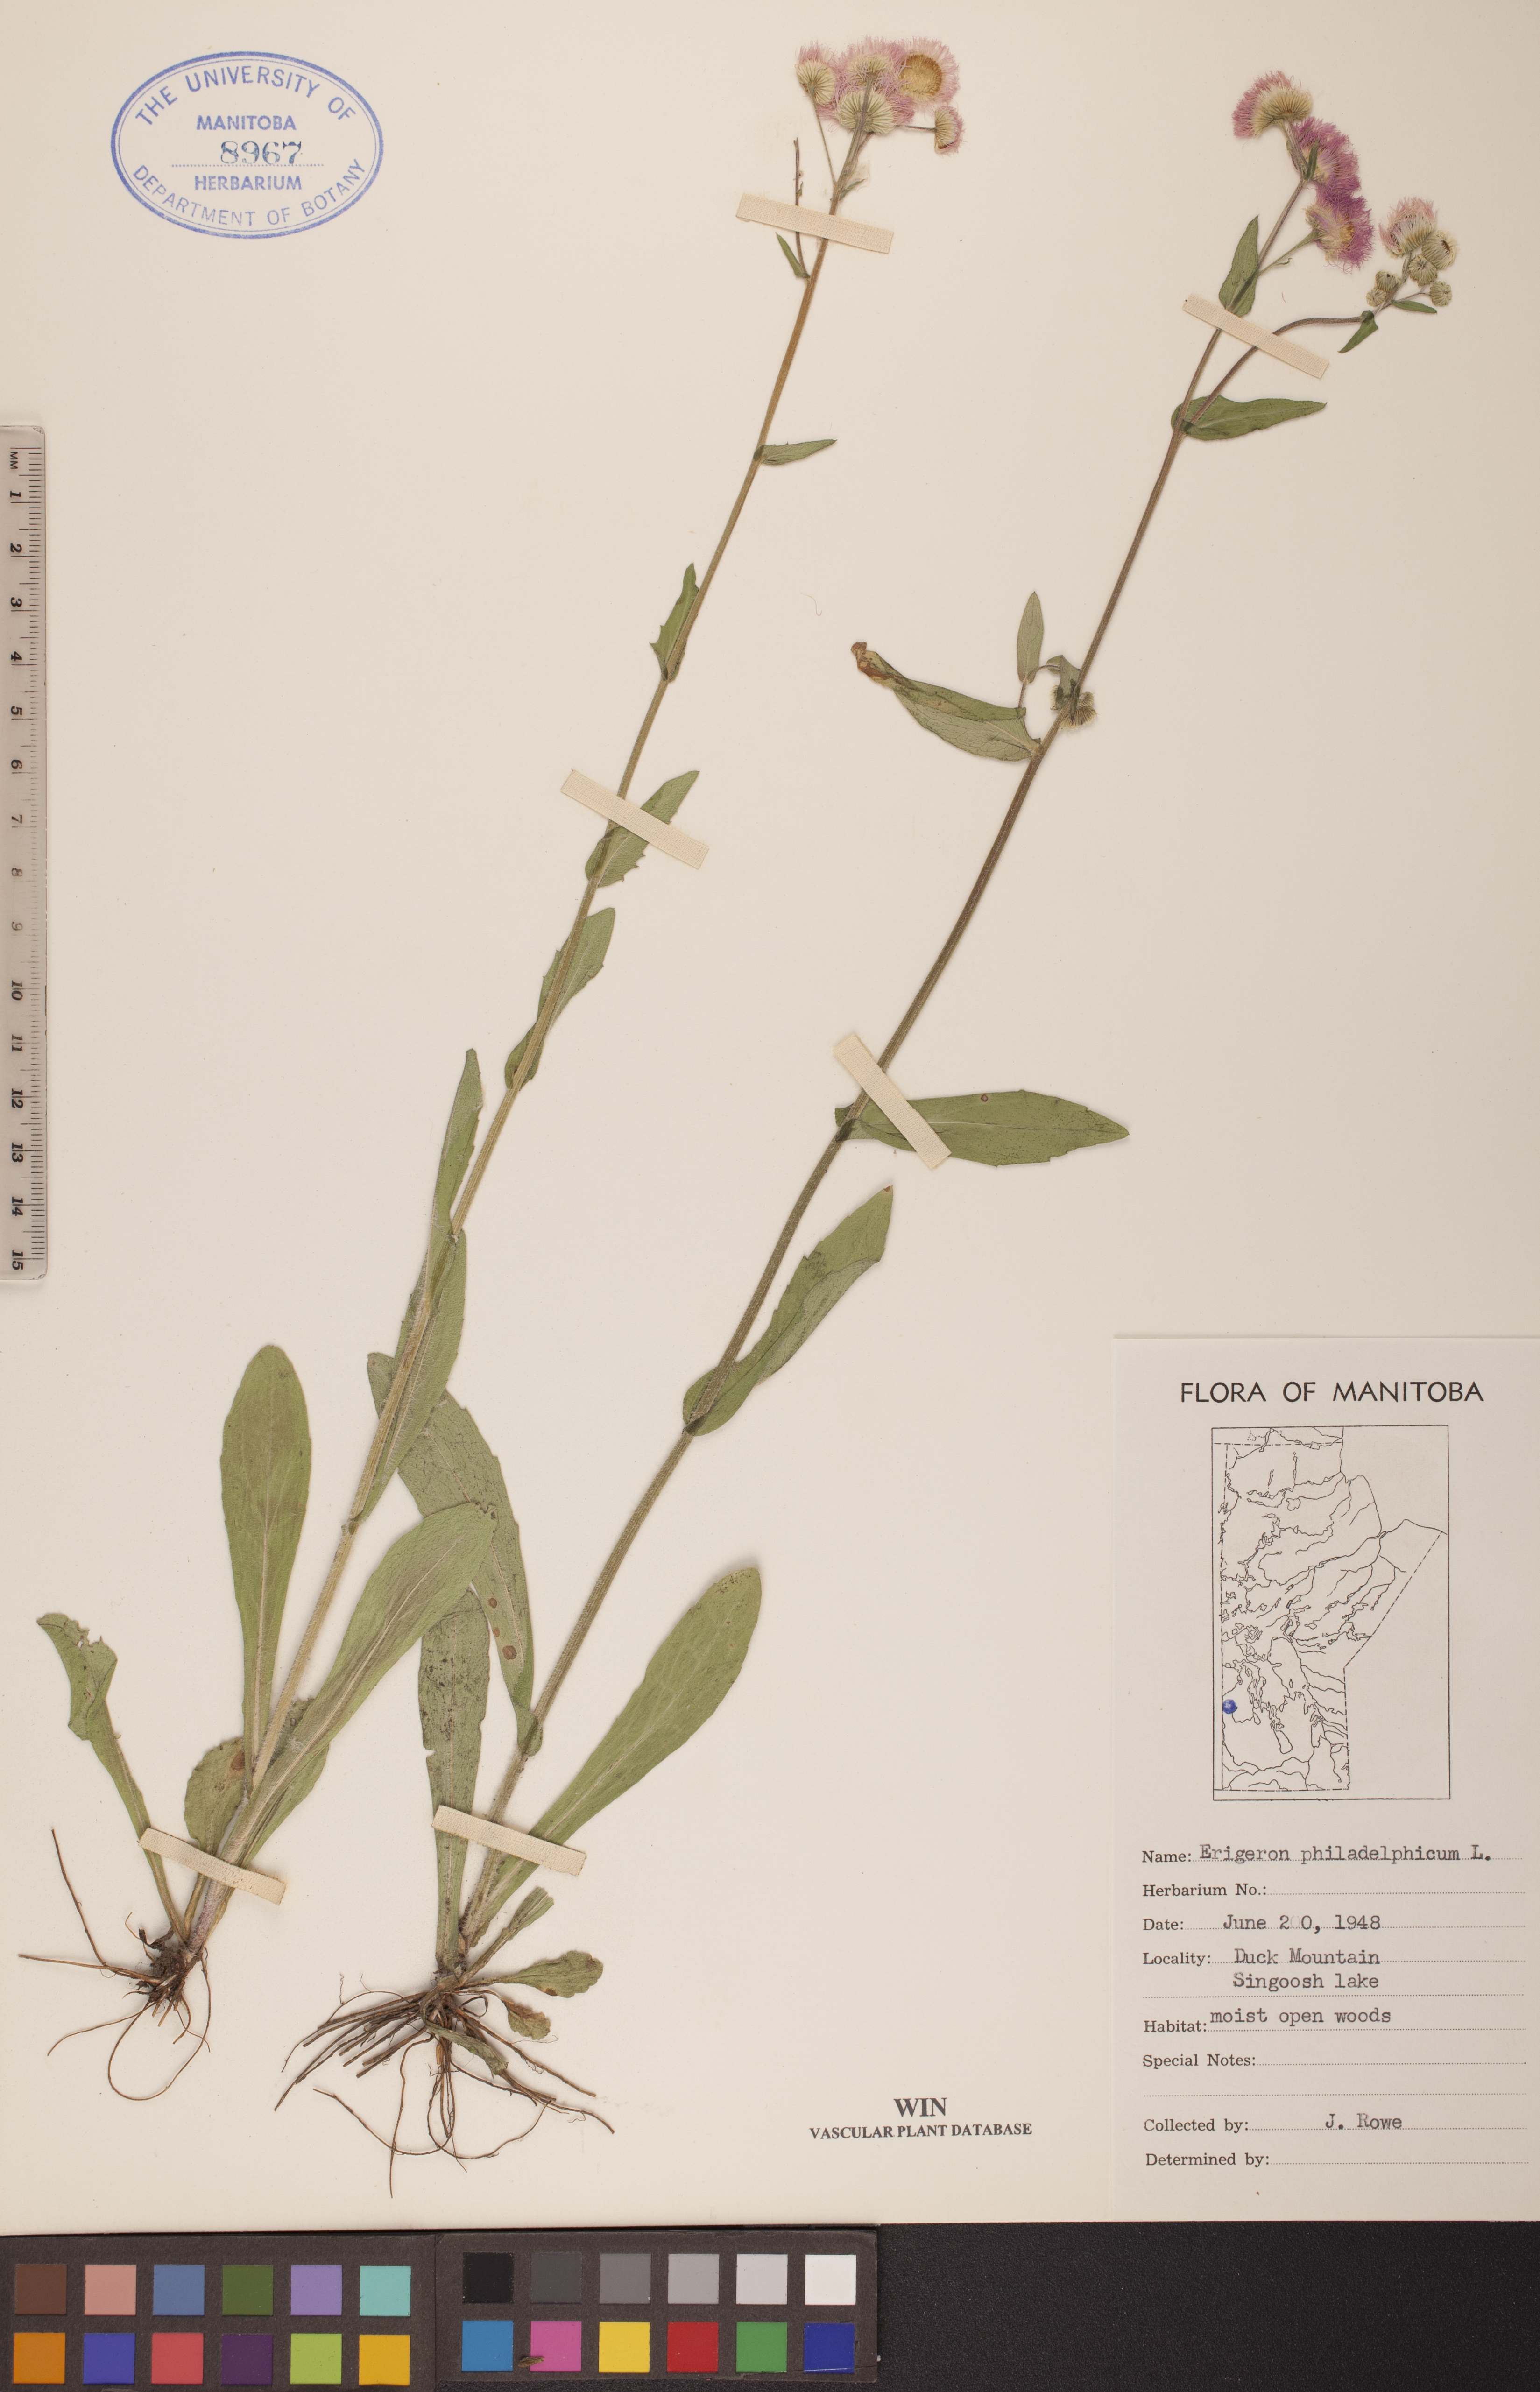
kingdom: Plantae
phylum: Tracheophyta
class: Magnoliopsida
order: Asterales
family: Asteraceae
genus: Erigeron
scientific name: Erigeron philadelphicus
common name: Robin's-plantain
